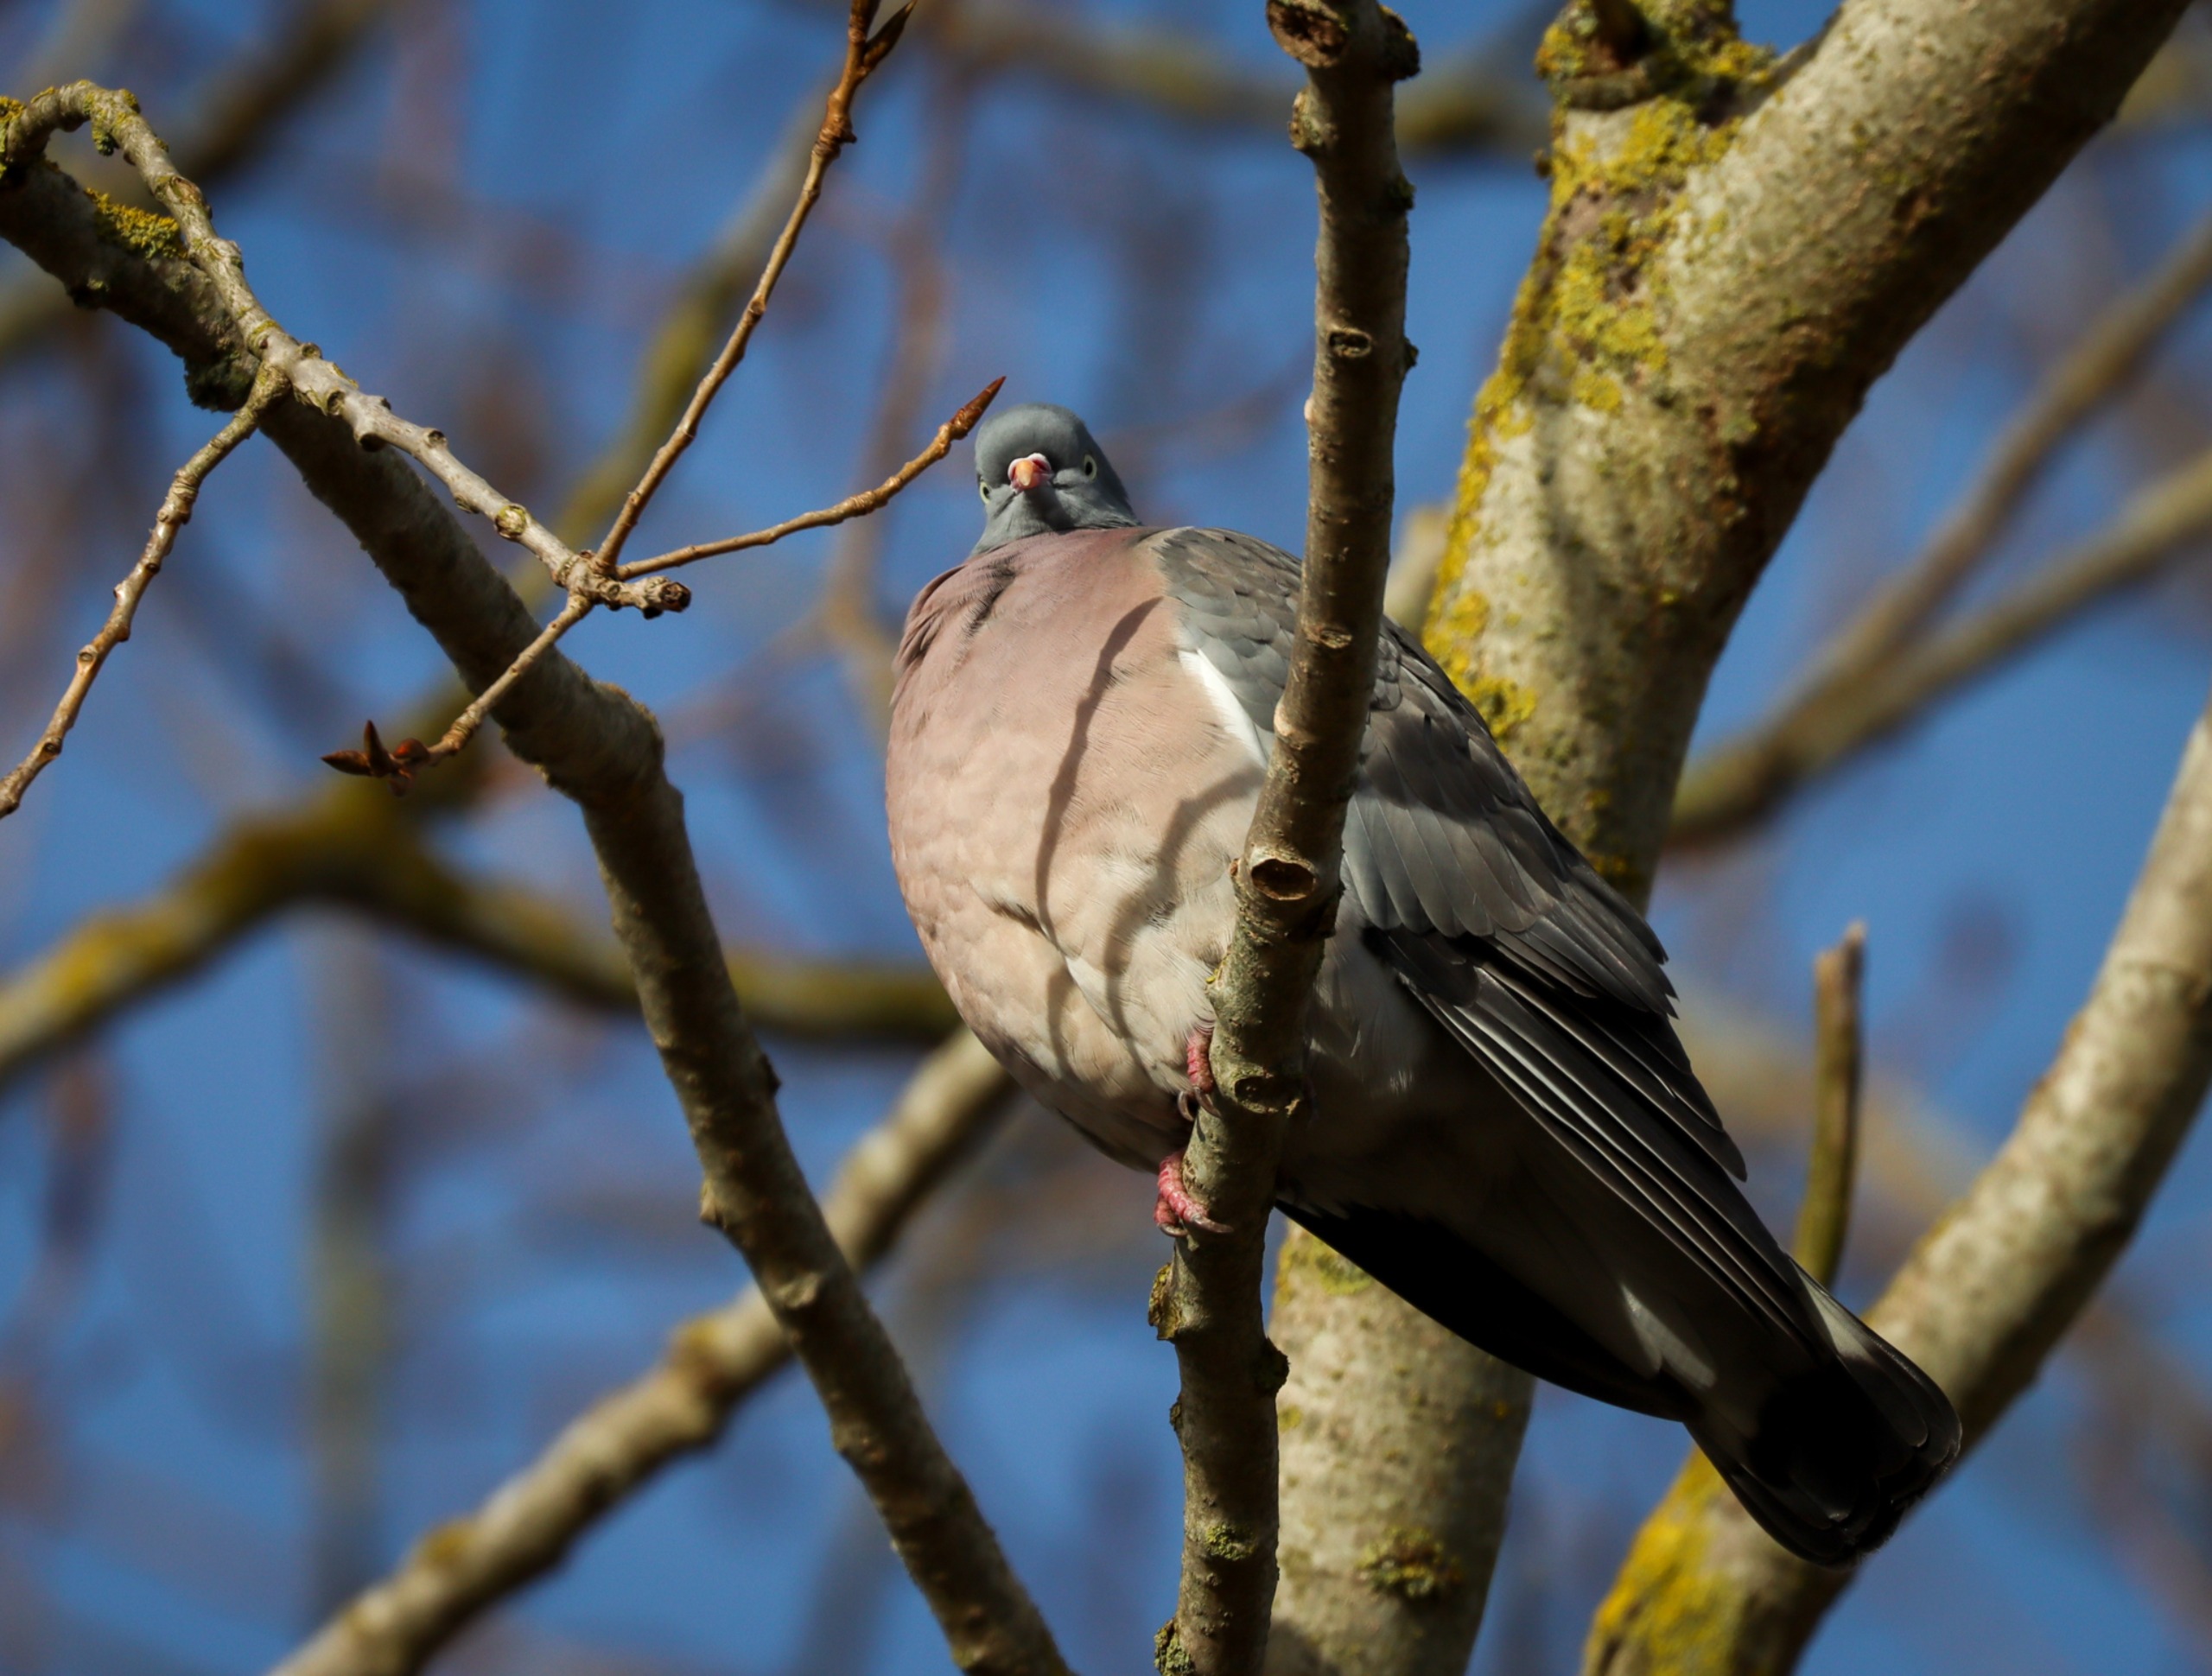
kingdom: Animalia
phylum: Chordata
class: Aves
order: Columbiformes
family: Columbidae
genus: Columba
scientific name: Columba palumbus
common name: Ringdue
